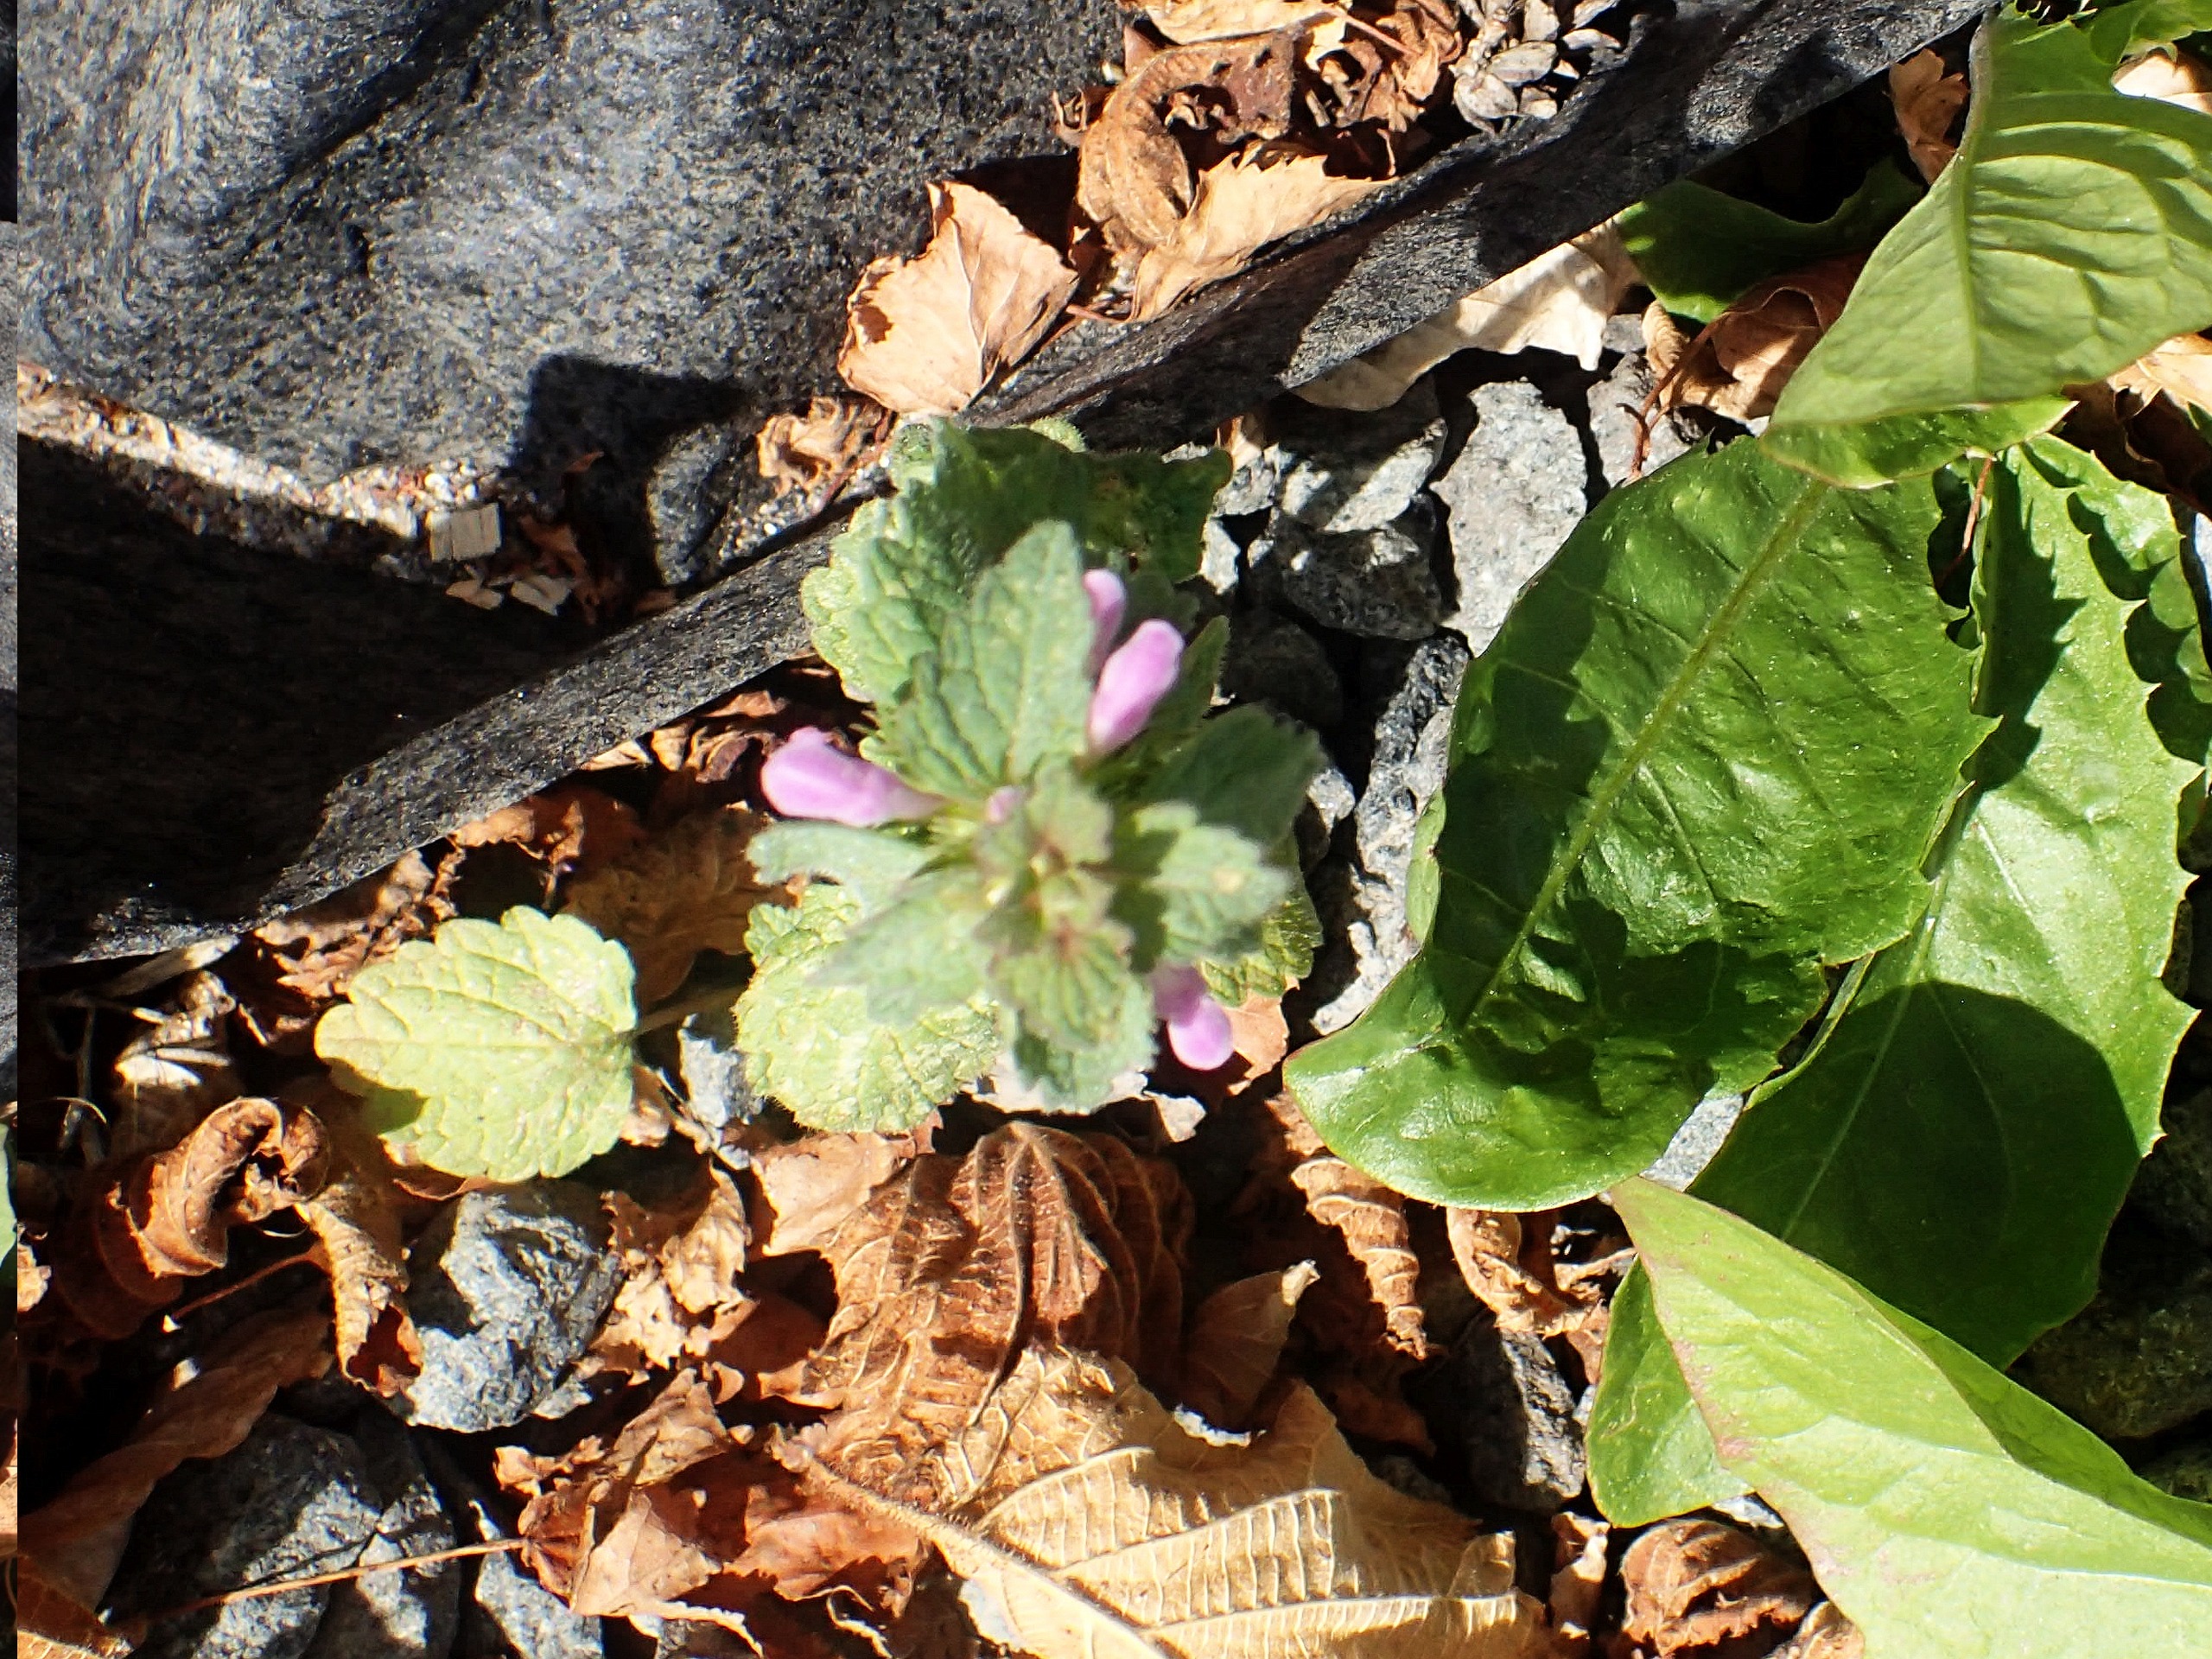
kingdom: Plantae
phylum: Tracheophyta
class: Magnoliopsida
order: Lamiales
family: Lamiaceae
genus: Lamium
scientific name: Lamium purpureum
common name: Rød tvetand
